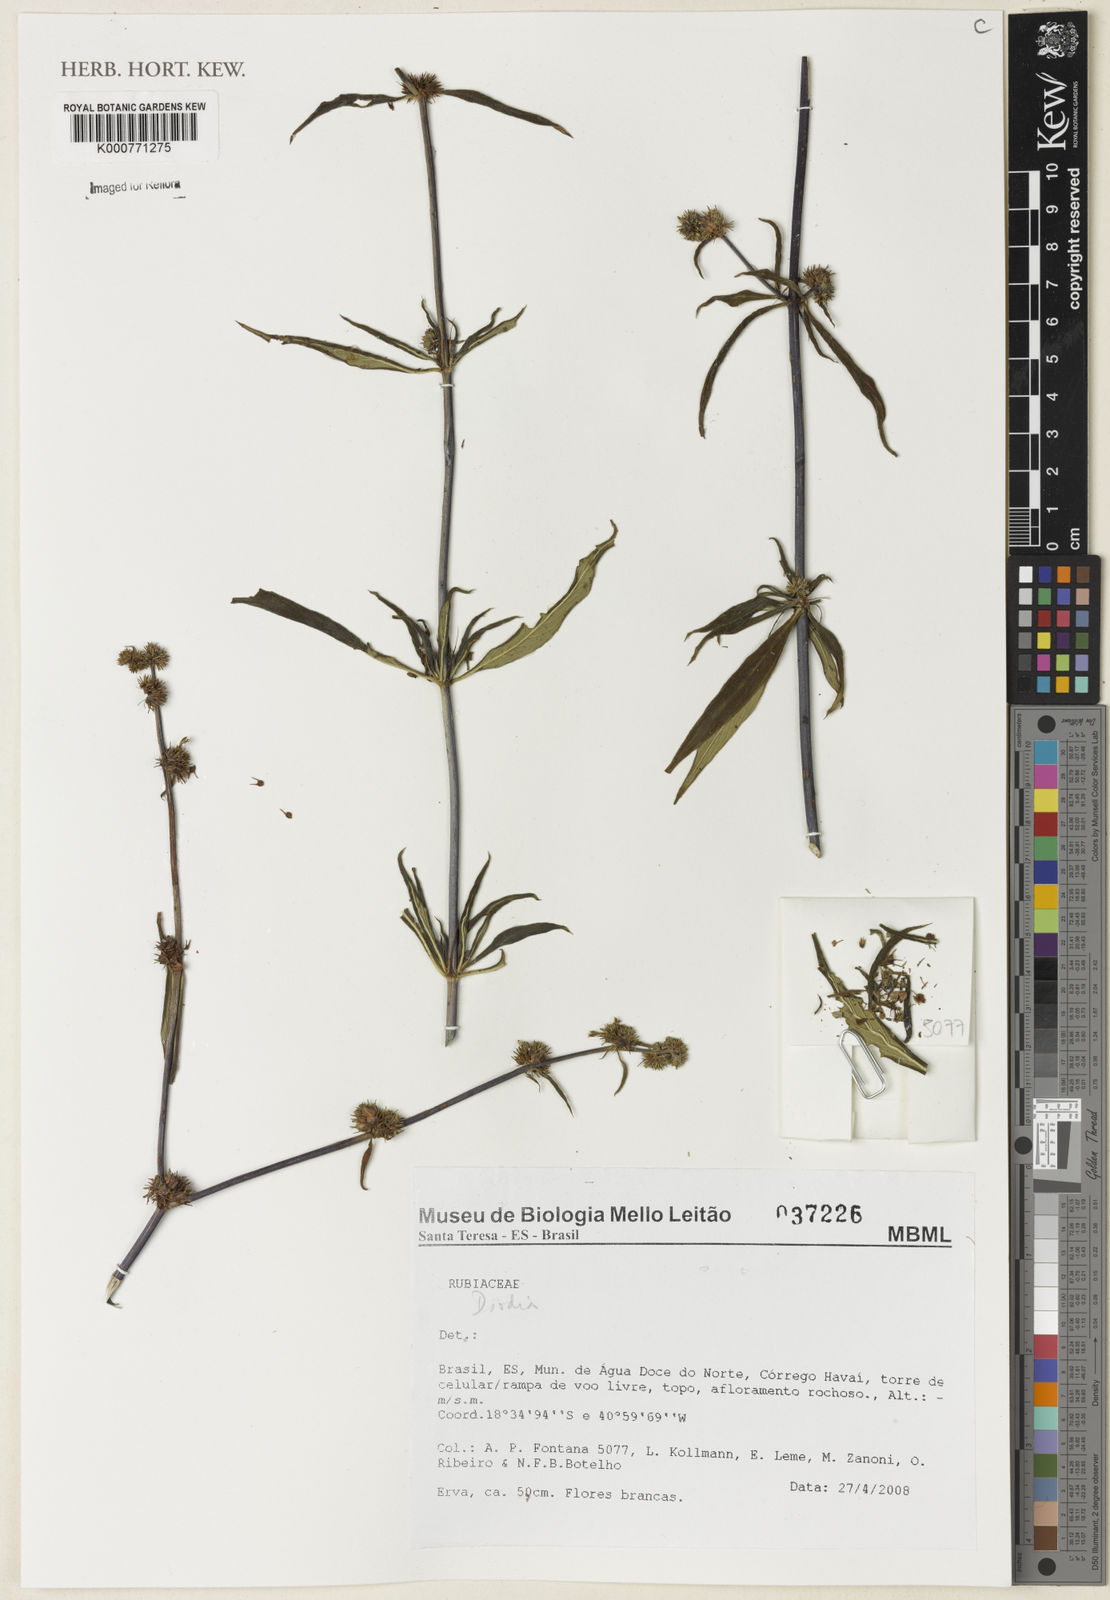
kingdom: Plantae
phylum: Tracheophyta
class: Magnoliopsida
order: Gentianales
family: Rubiaceae
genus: Bradea
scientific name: Bradea borrerioides
